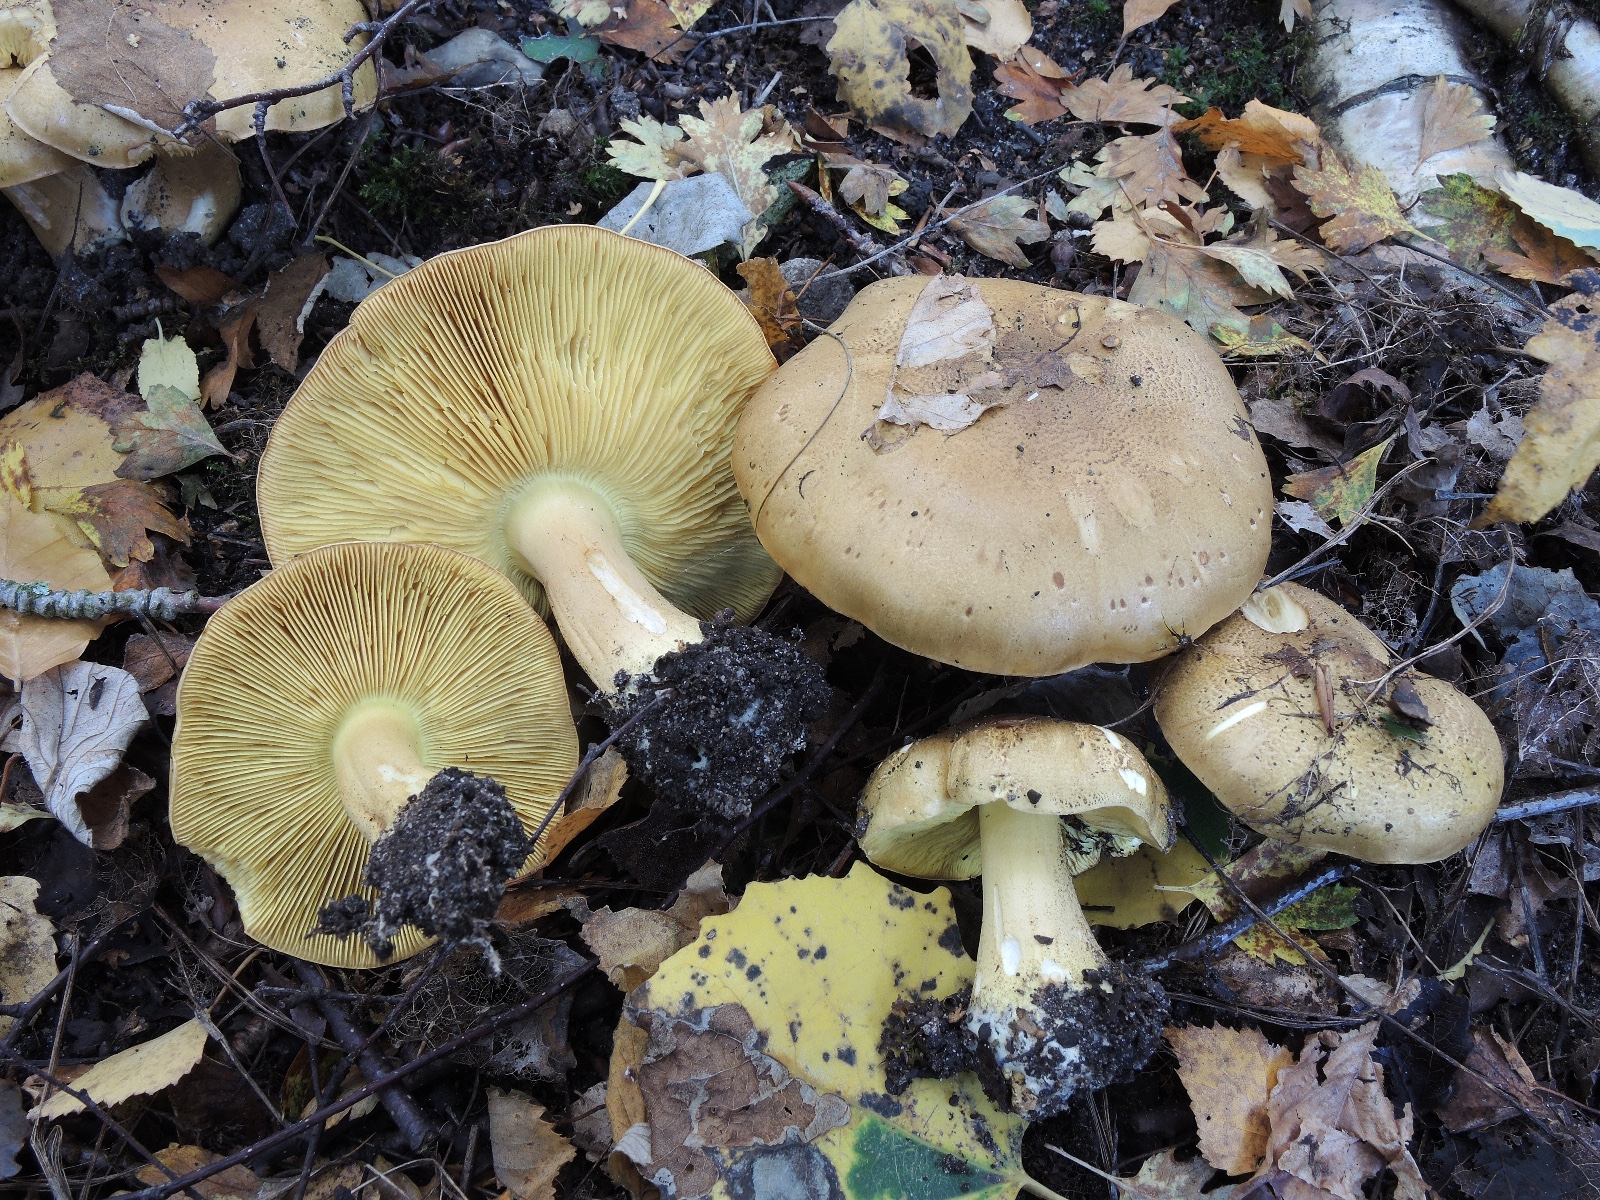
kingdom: Fungi
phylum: Basidiomycota
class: Agaricomycetes
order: Agaricales
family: Tricholomataceae
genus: Tricholoma
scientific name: Tricholoma frondosae
